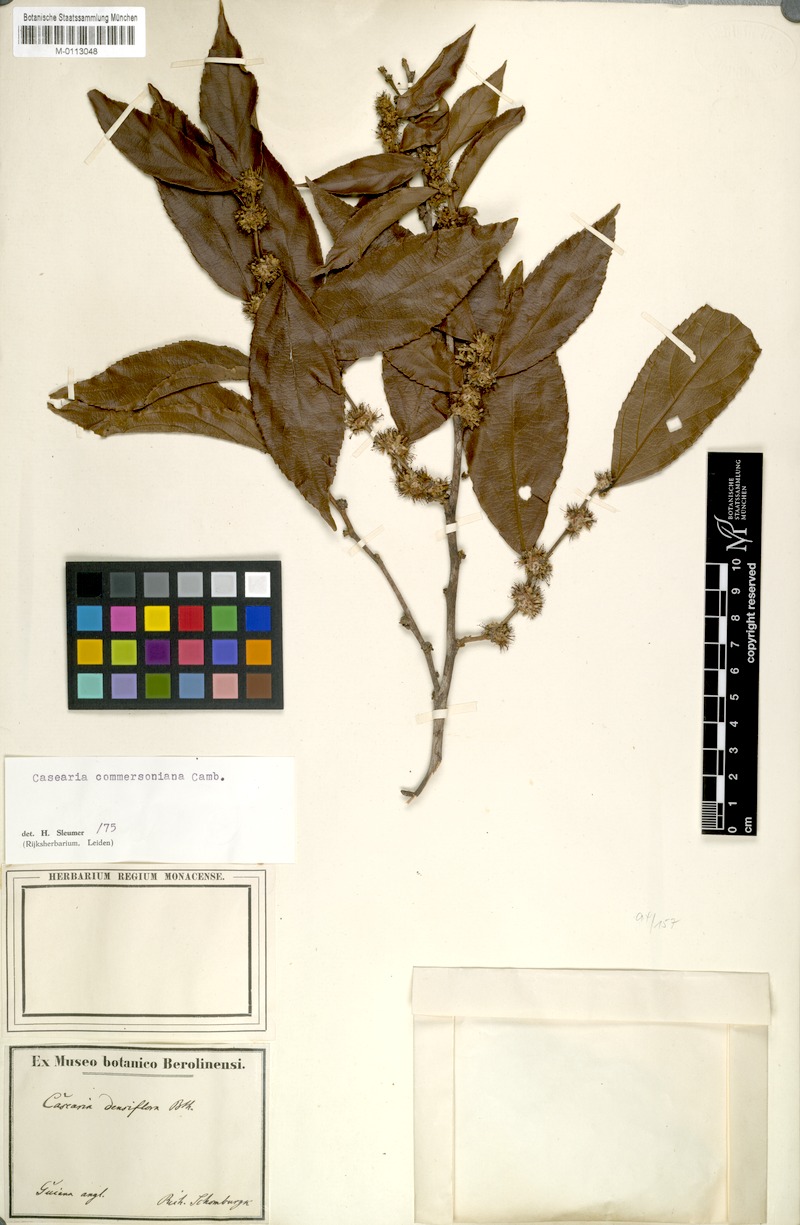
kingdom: Plantae
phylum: Tracheophyta
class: Magnoliopsida
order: Malpighiales
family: Salicaceae
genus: Piparea
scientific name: Piparea dentata
